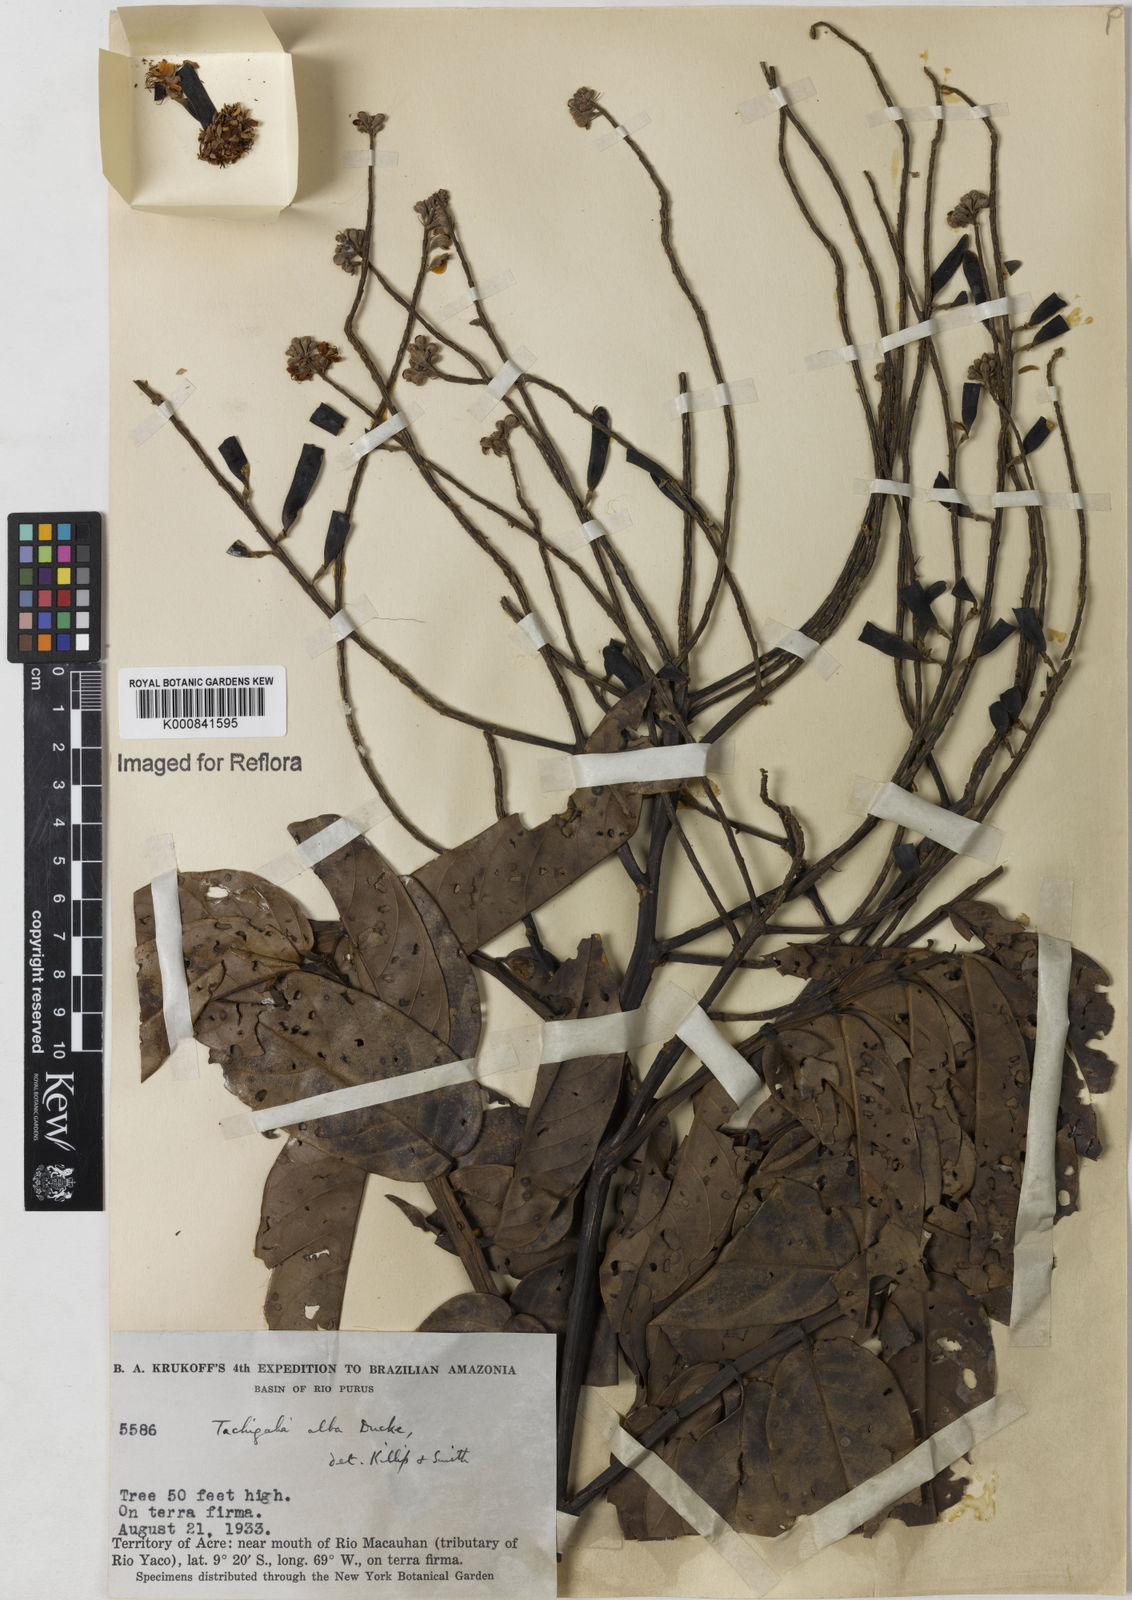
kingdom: Plantae
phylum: Tracheophyta
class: Magnoliopsida
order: Fabales
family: Fabaceae
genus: Tachigali
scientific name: Tachigali alba
